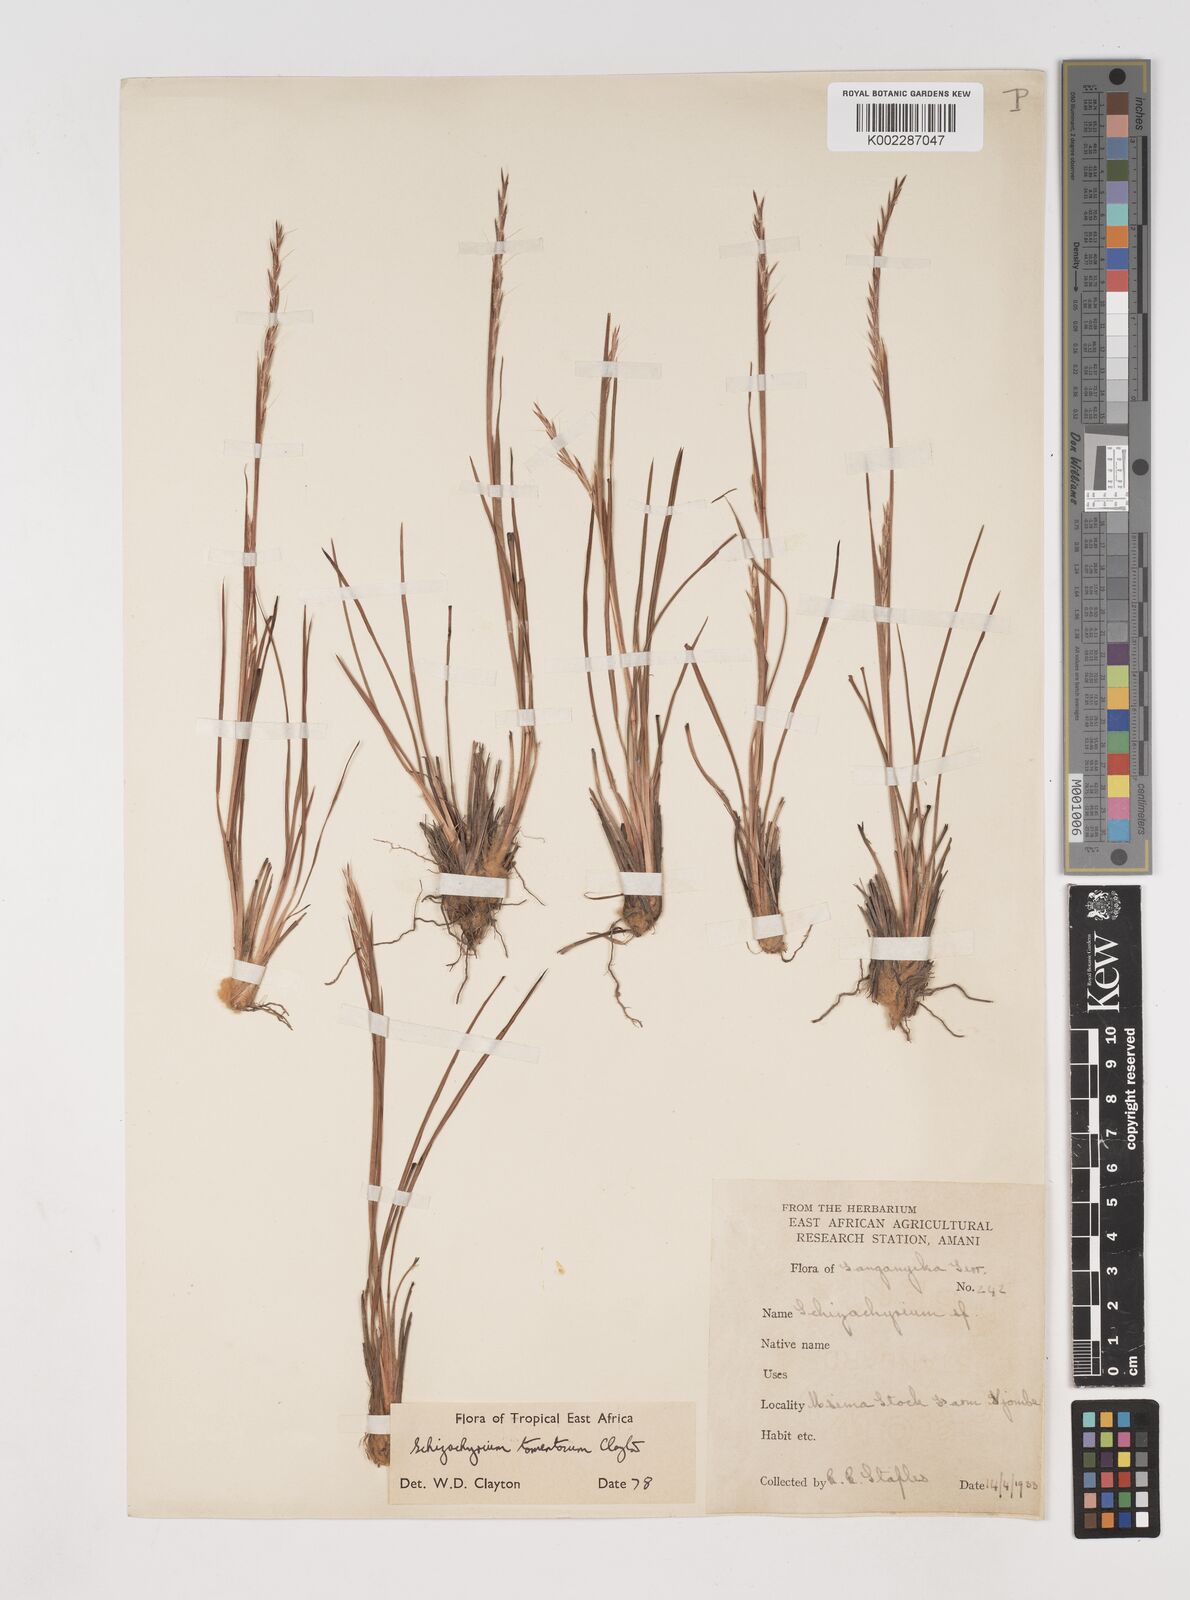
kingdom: Plantae
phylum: Tracheophyta
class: Liliopsida
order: Poales
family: Poaceae
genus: Schizachyrium
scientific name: Schizachyrium claudopus
